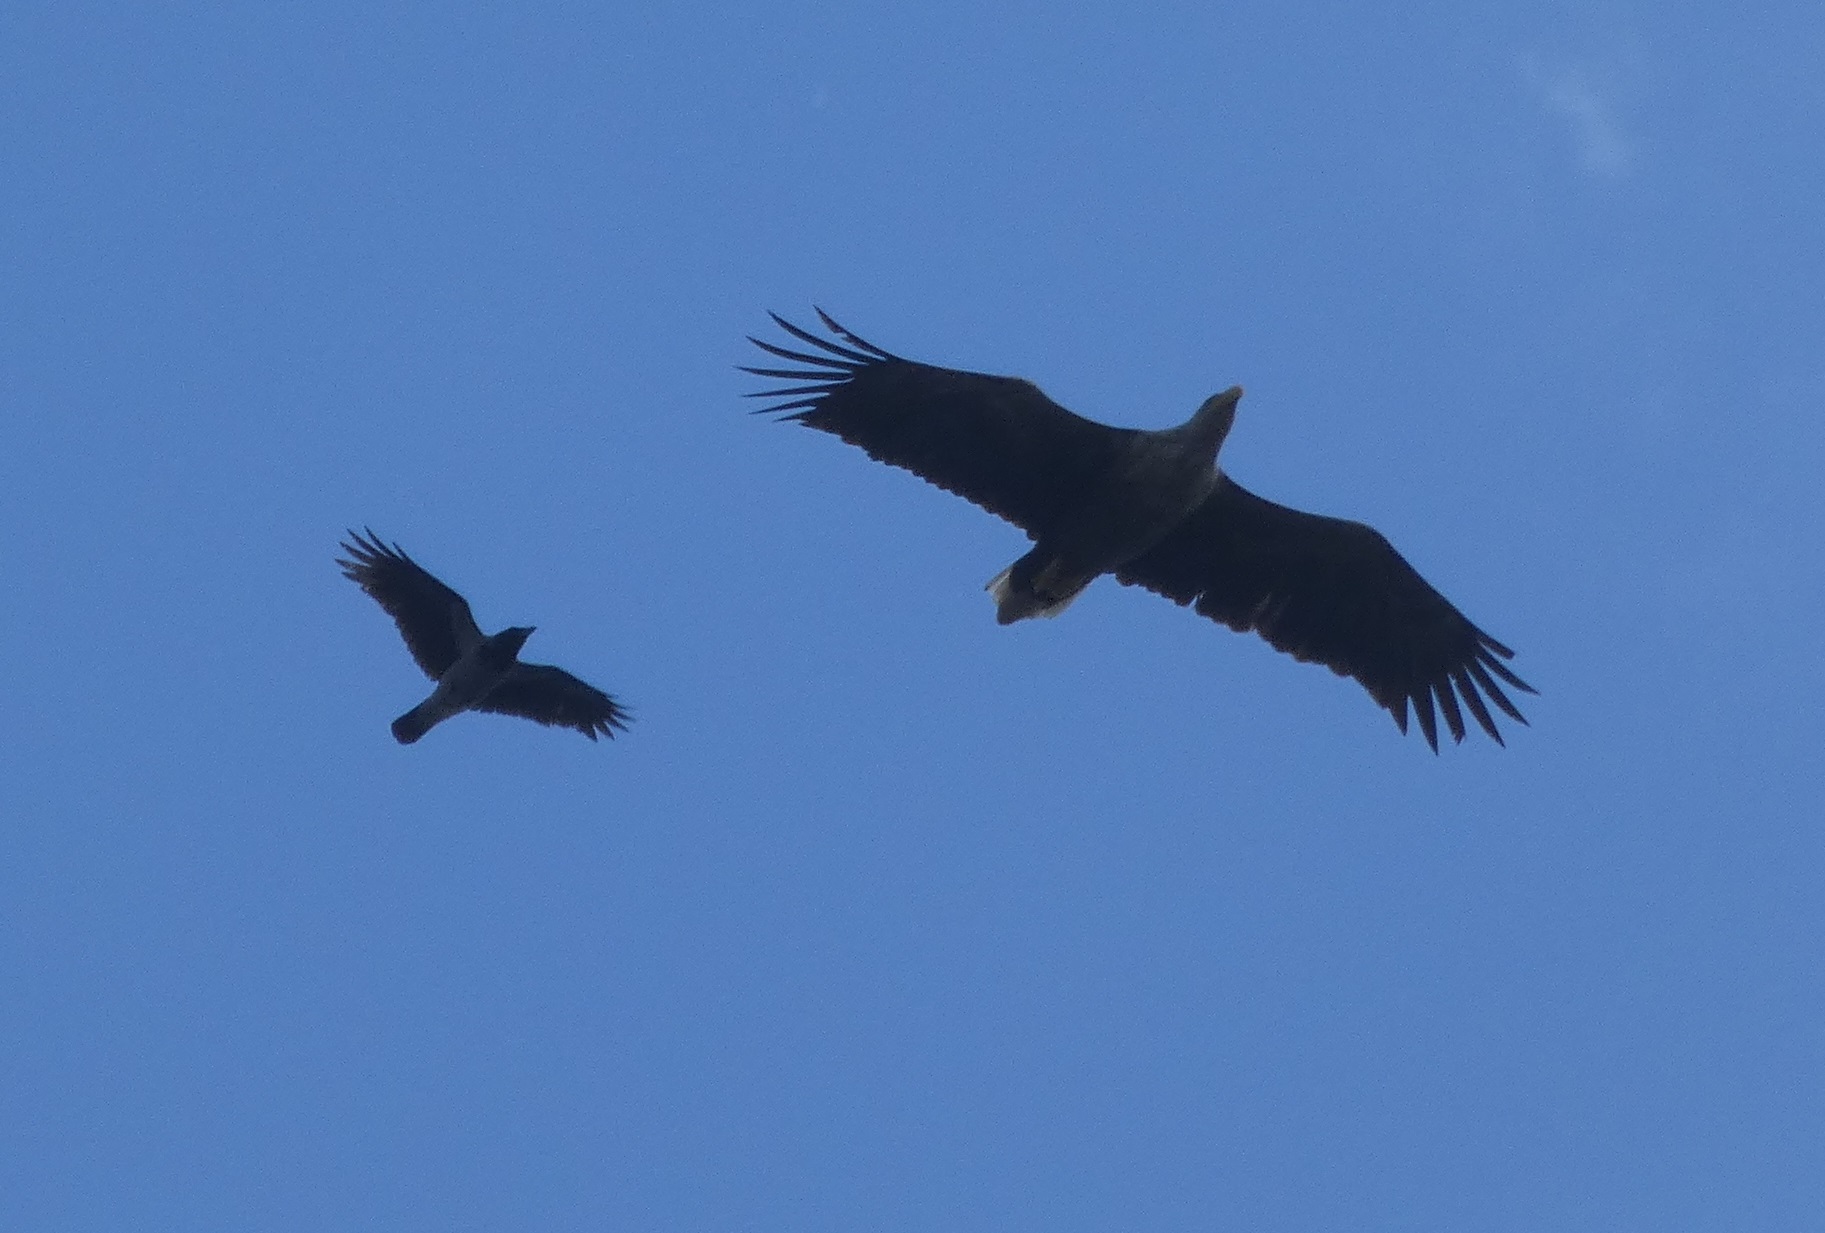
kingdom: Animalia
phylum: Chordata
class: Aves
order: Passeriformes
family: Corvidae
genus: Corvus
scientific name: Corvus cornix
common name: Gråkrage
